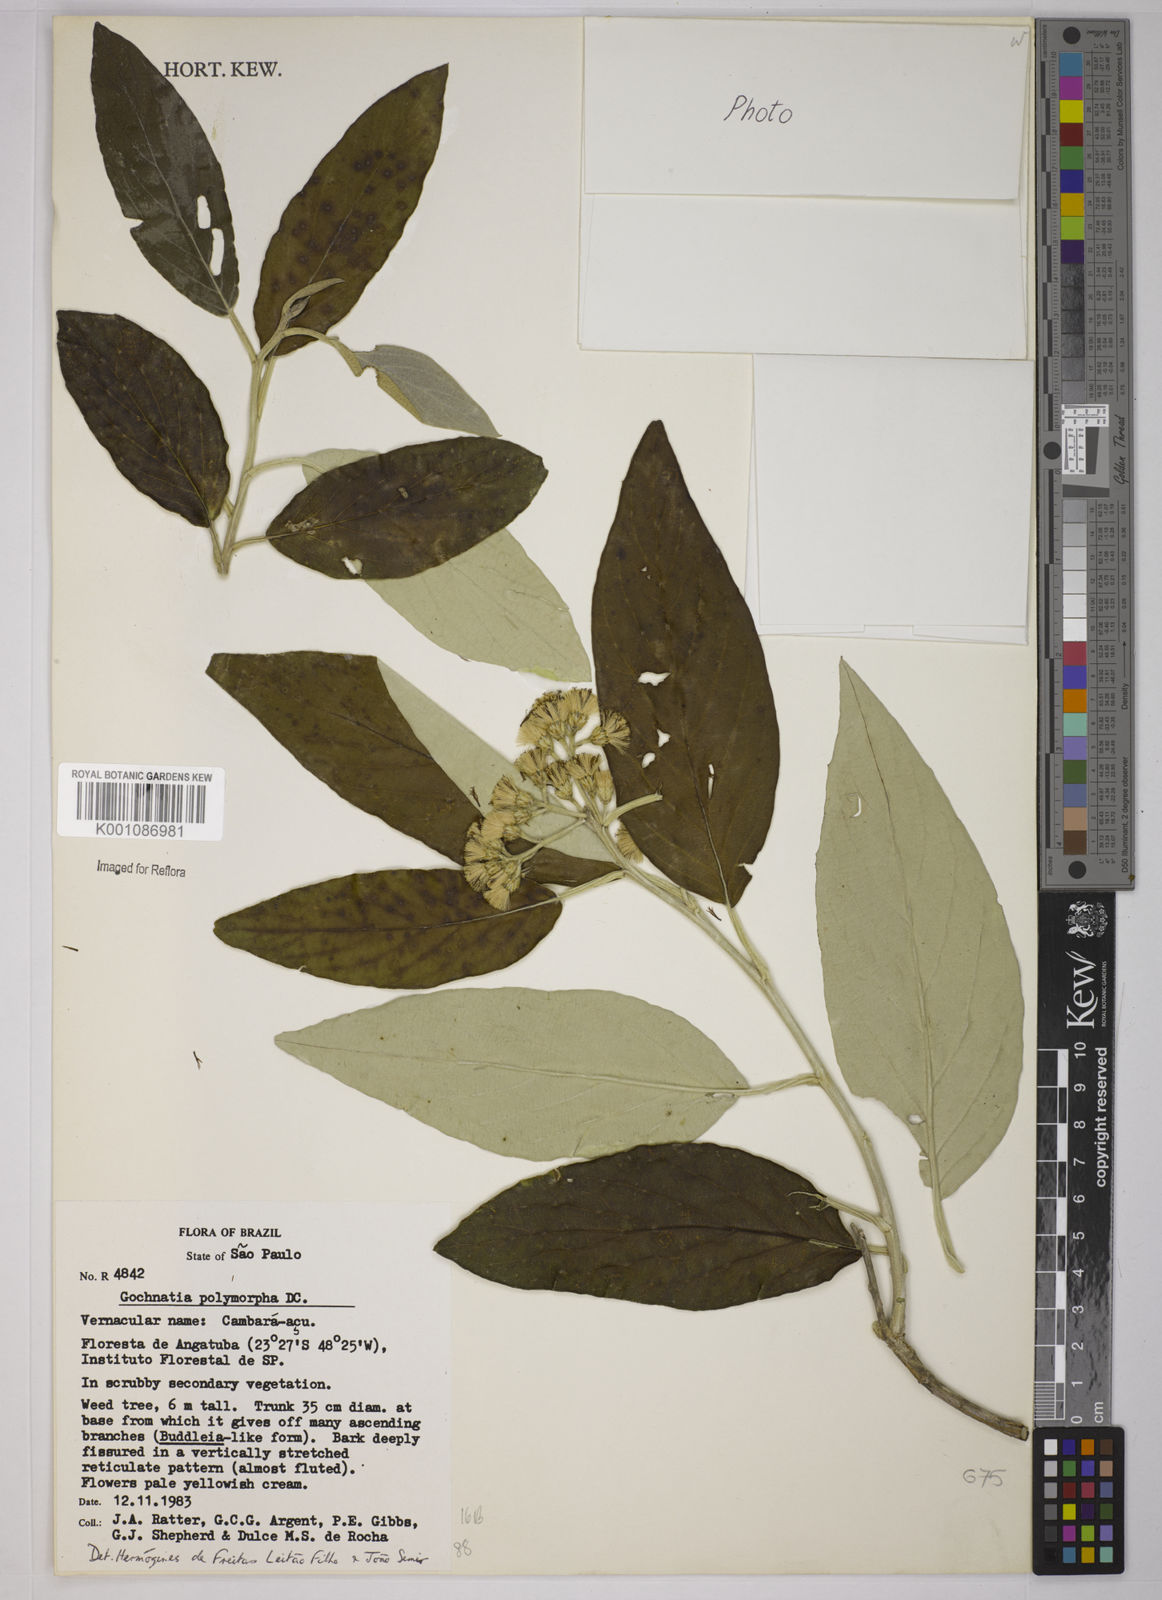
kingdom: Plantae
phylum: Tracheophyta
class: Magnoliopsida
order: Asterales
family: Asteraceae
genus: Moquiniastrum
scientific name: Moquiniastrum polymorphum
